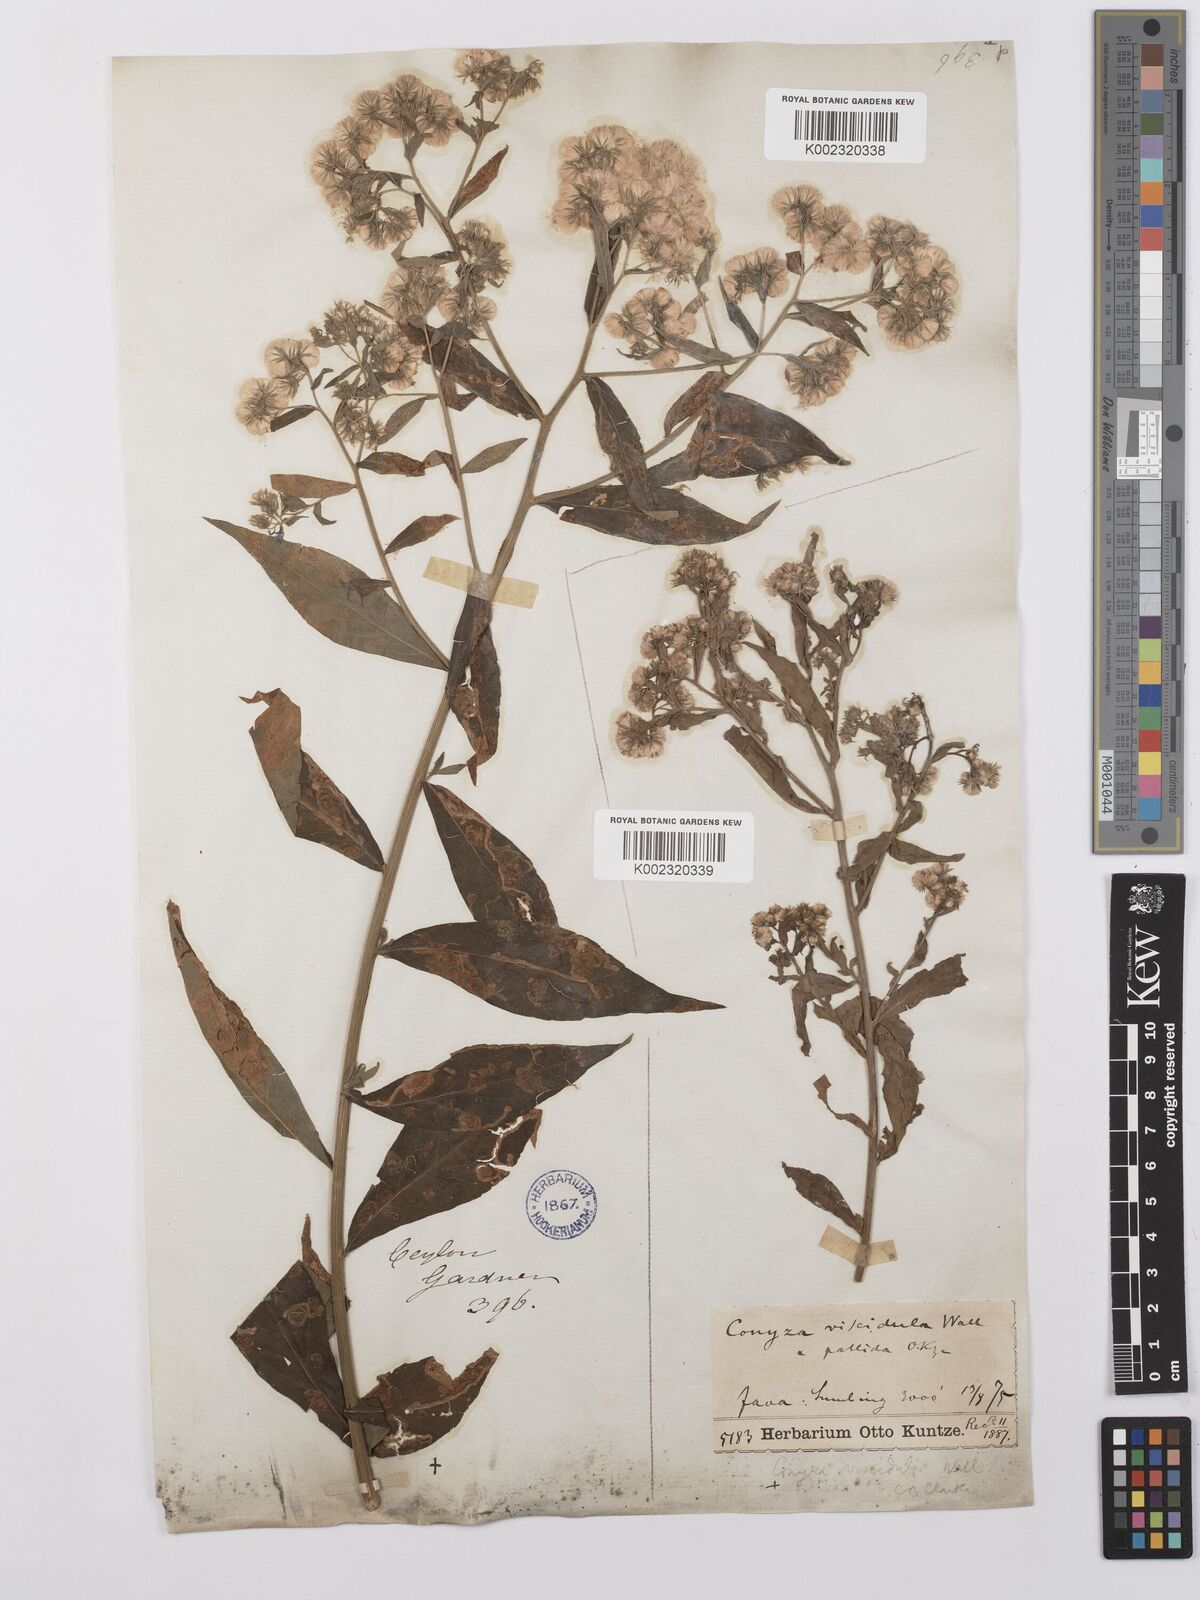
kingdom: Plantae
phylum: Tracheophyta
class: Magnoliopsida
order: Asterales
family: Asteraceae
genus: Eschenbachia
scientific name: Eschenbachia leucantha
